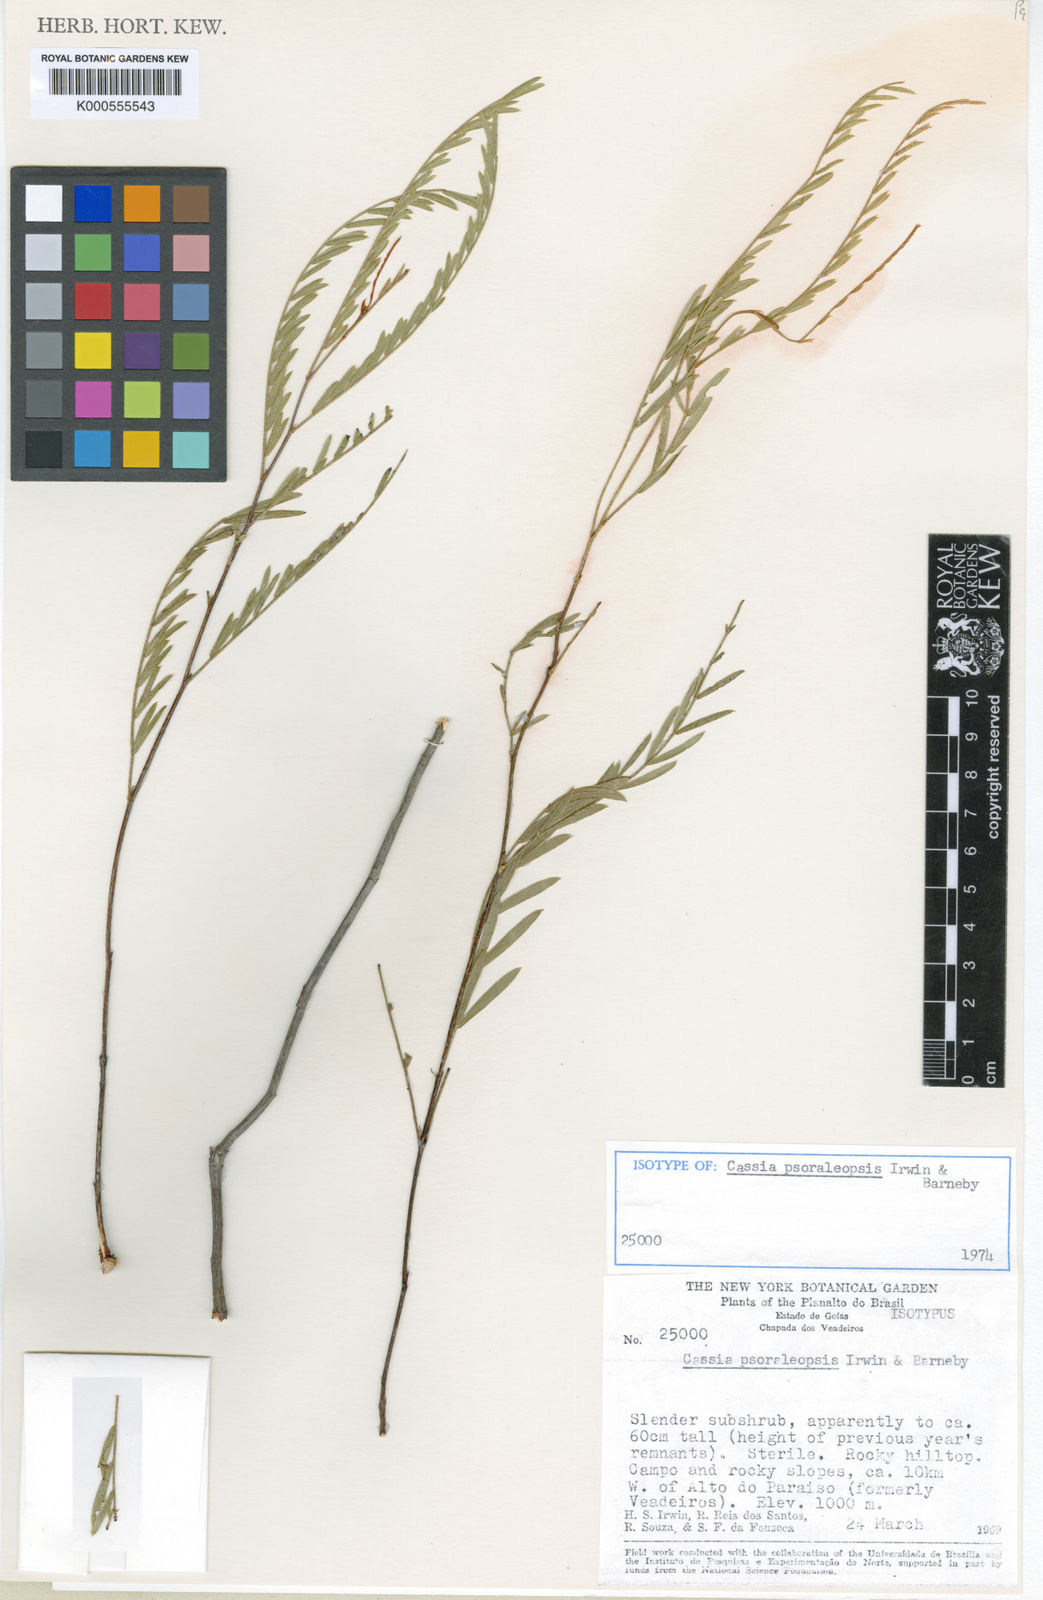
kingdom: Plantae
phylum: Tracheophyta
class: Magnoliopsida
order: Fabales
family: Fabaceae
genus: Chamaecrista
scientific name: Chamaecrista psoraleopsis
